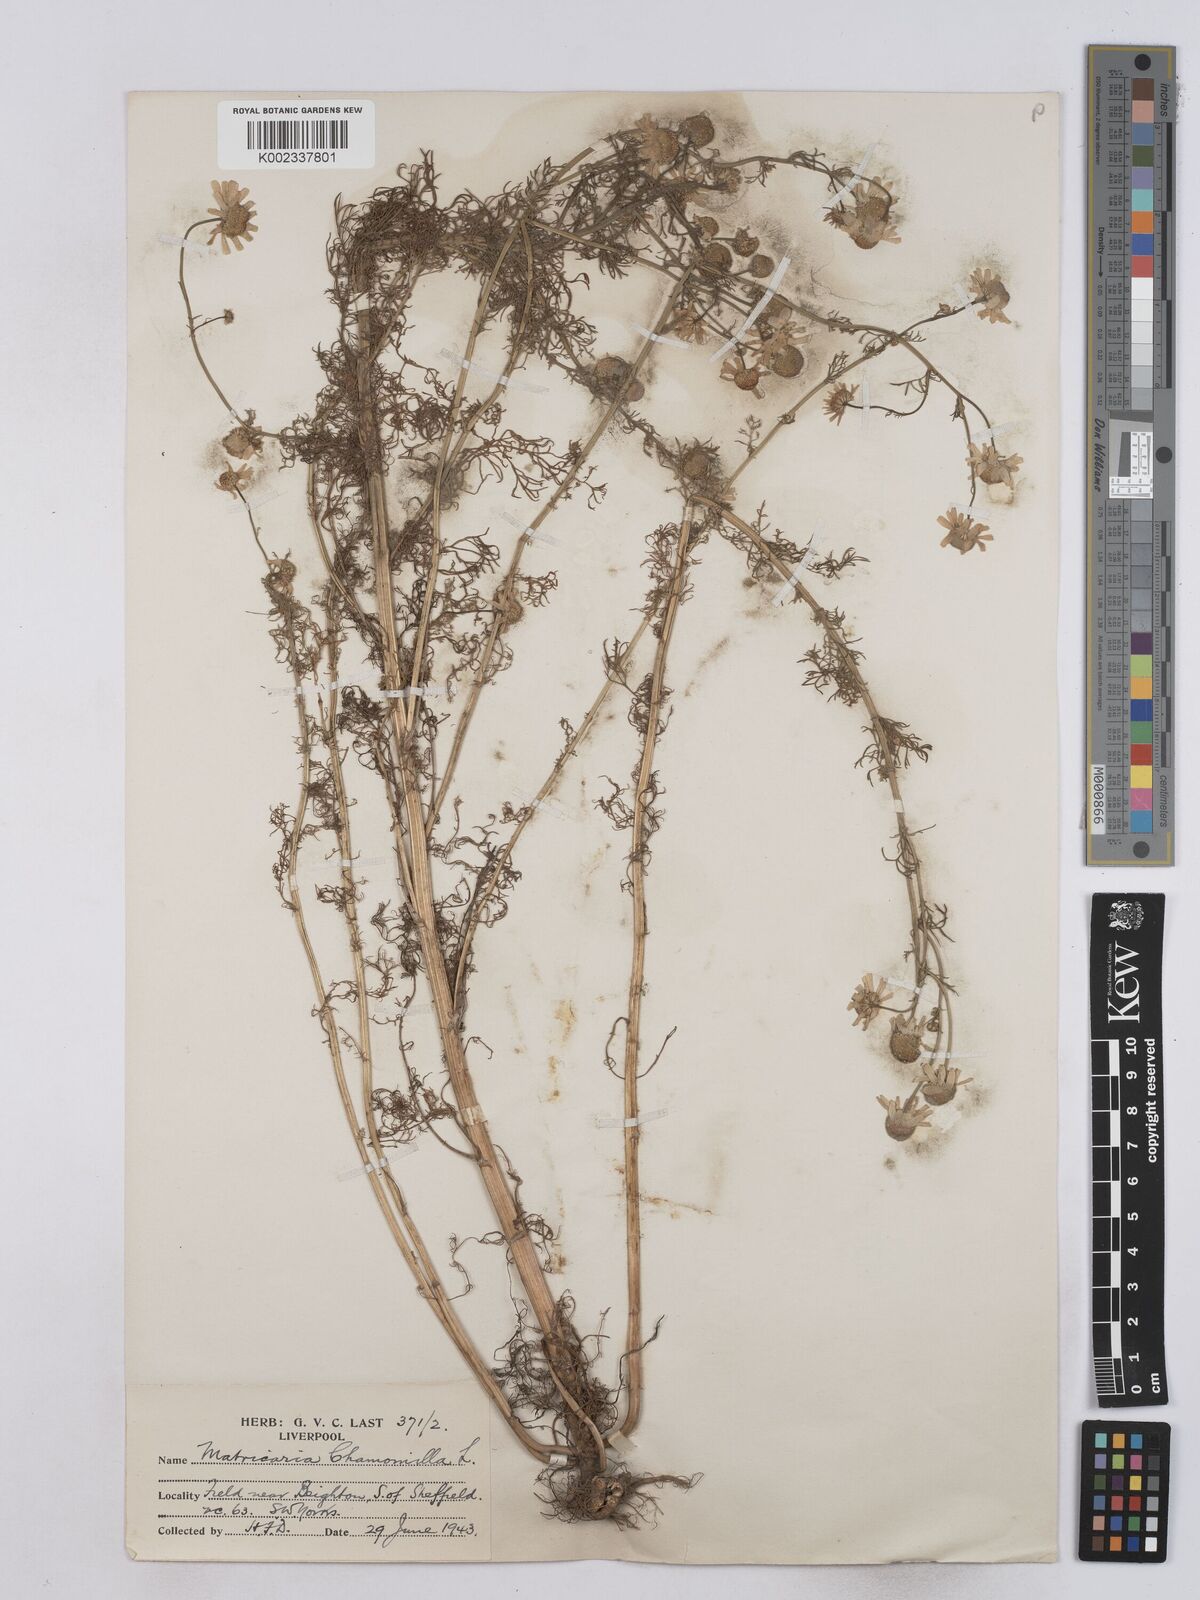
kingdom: Plantae
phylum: Tracheophyta
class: Magnoliopsida
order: Asterales
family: Asteraceae
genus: Matricaria
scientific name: Matricaria chamomilla
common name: Scented mayweed
